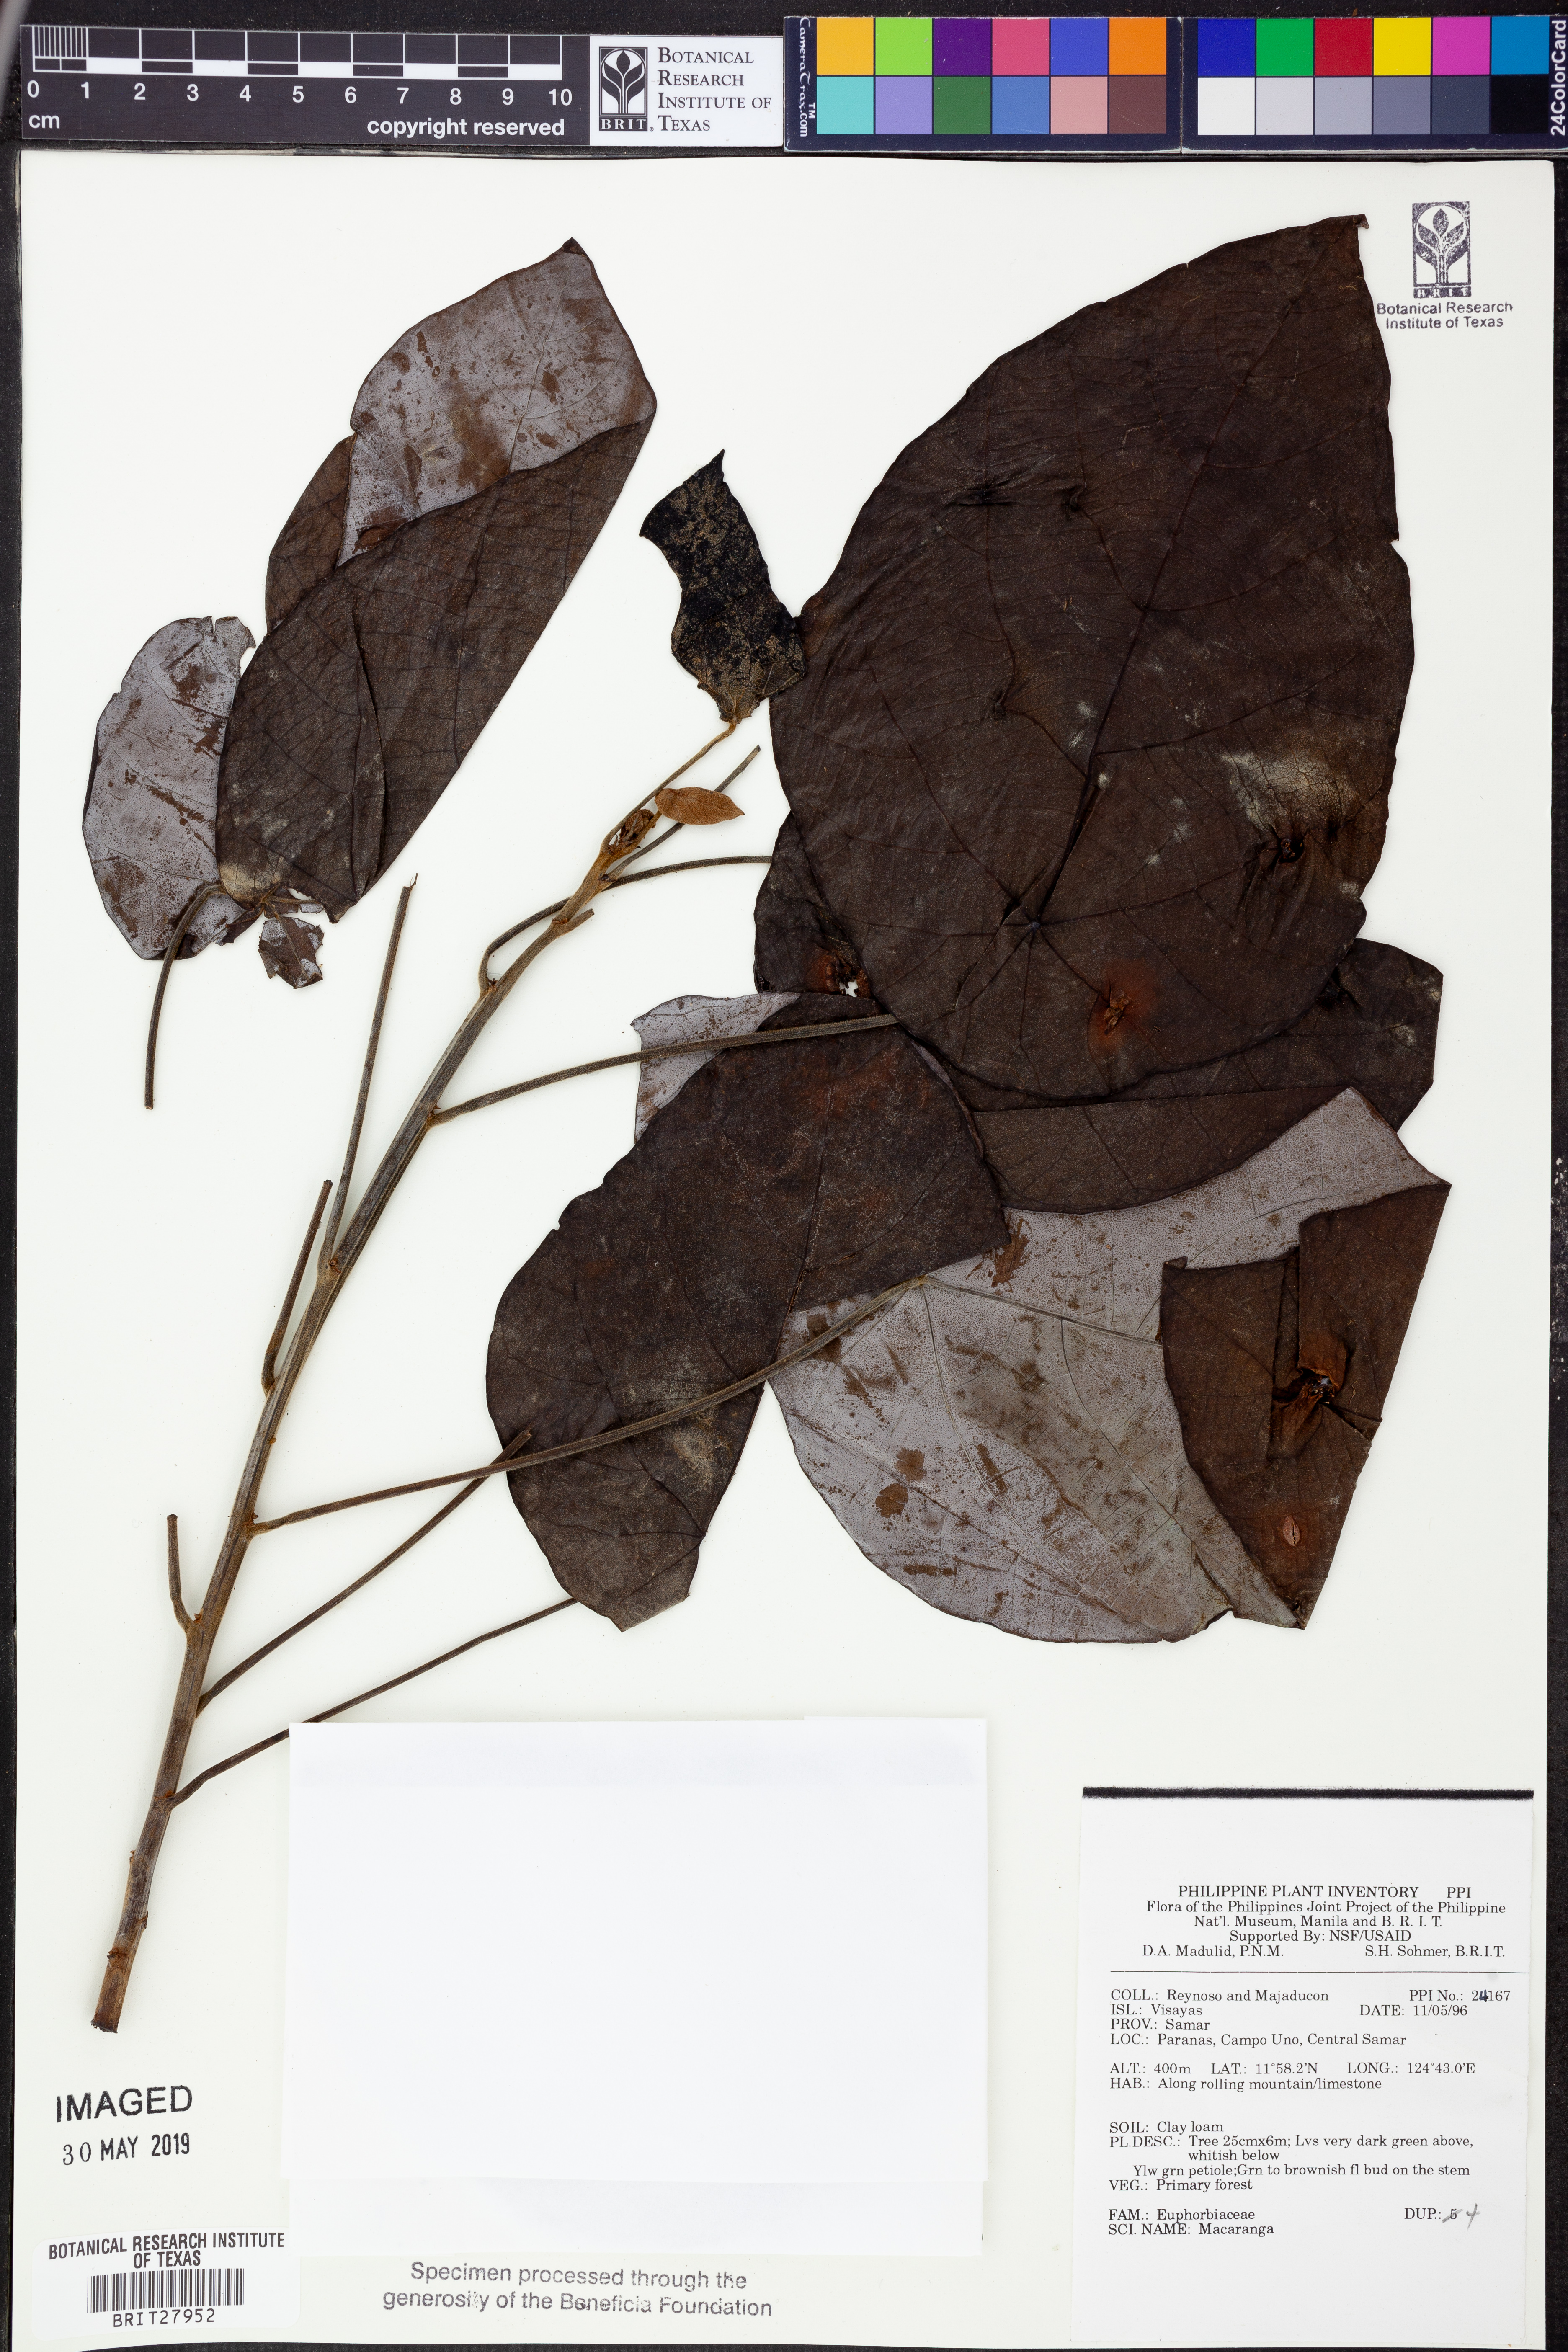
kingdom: Plantae
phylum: Tracheophyta
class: Magnoliopsida
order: Malpighiales
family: Euphorbiaceae
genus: Macaranga
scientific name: Macaranga
